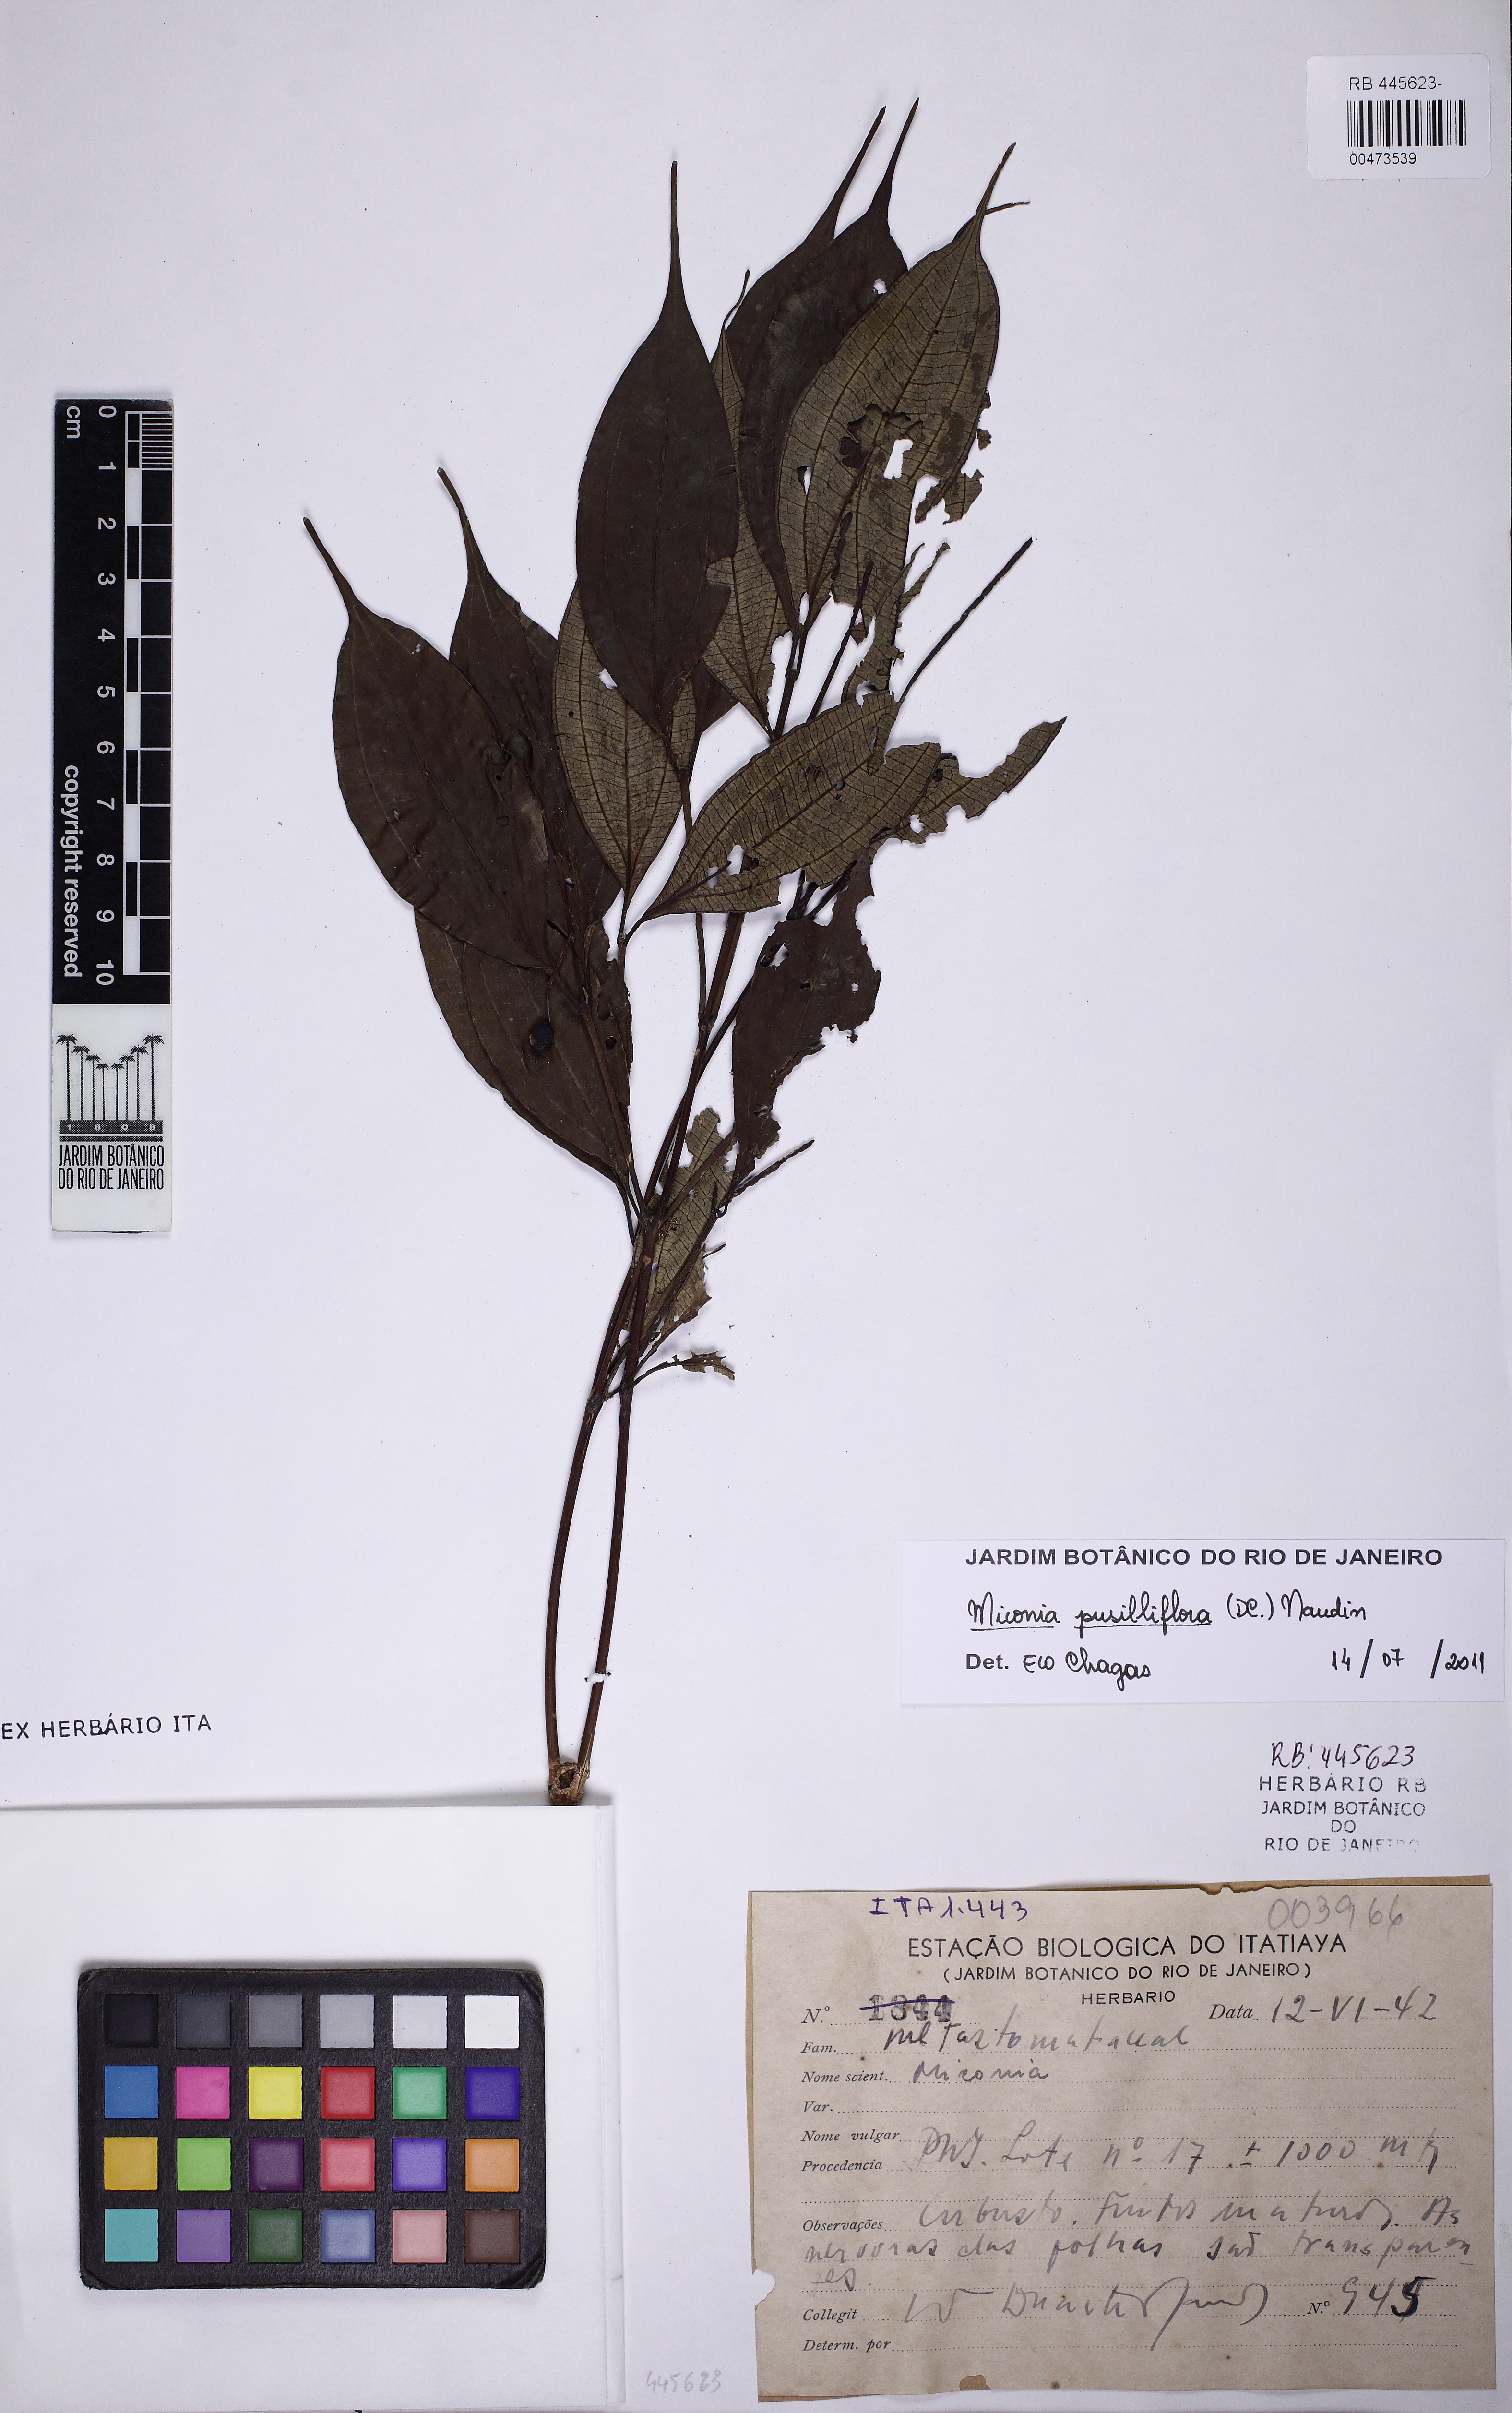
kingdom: Plantae
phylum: Tracheophyta
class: Magnoliopsida
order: Myrtales
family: Melastomataceae
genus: Miconia
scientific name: Miconia pusilliflora
